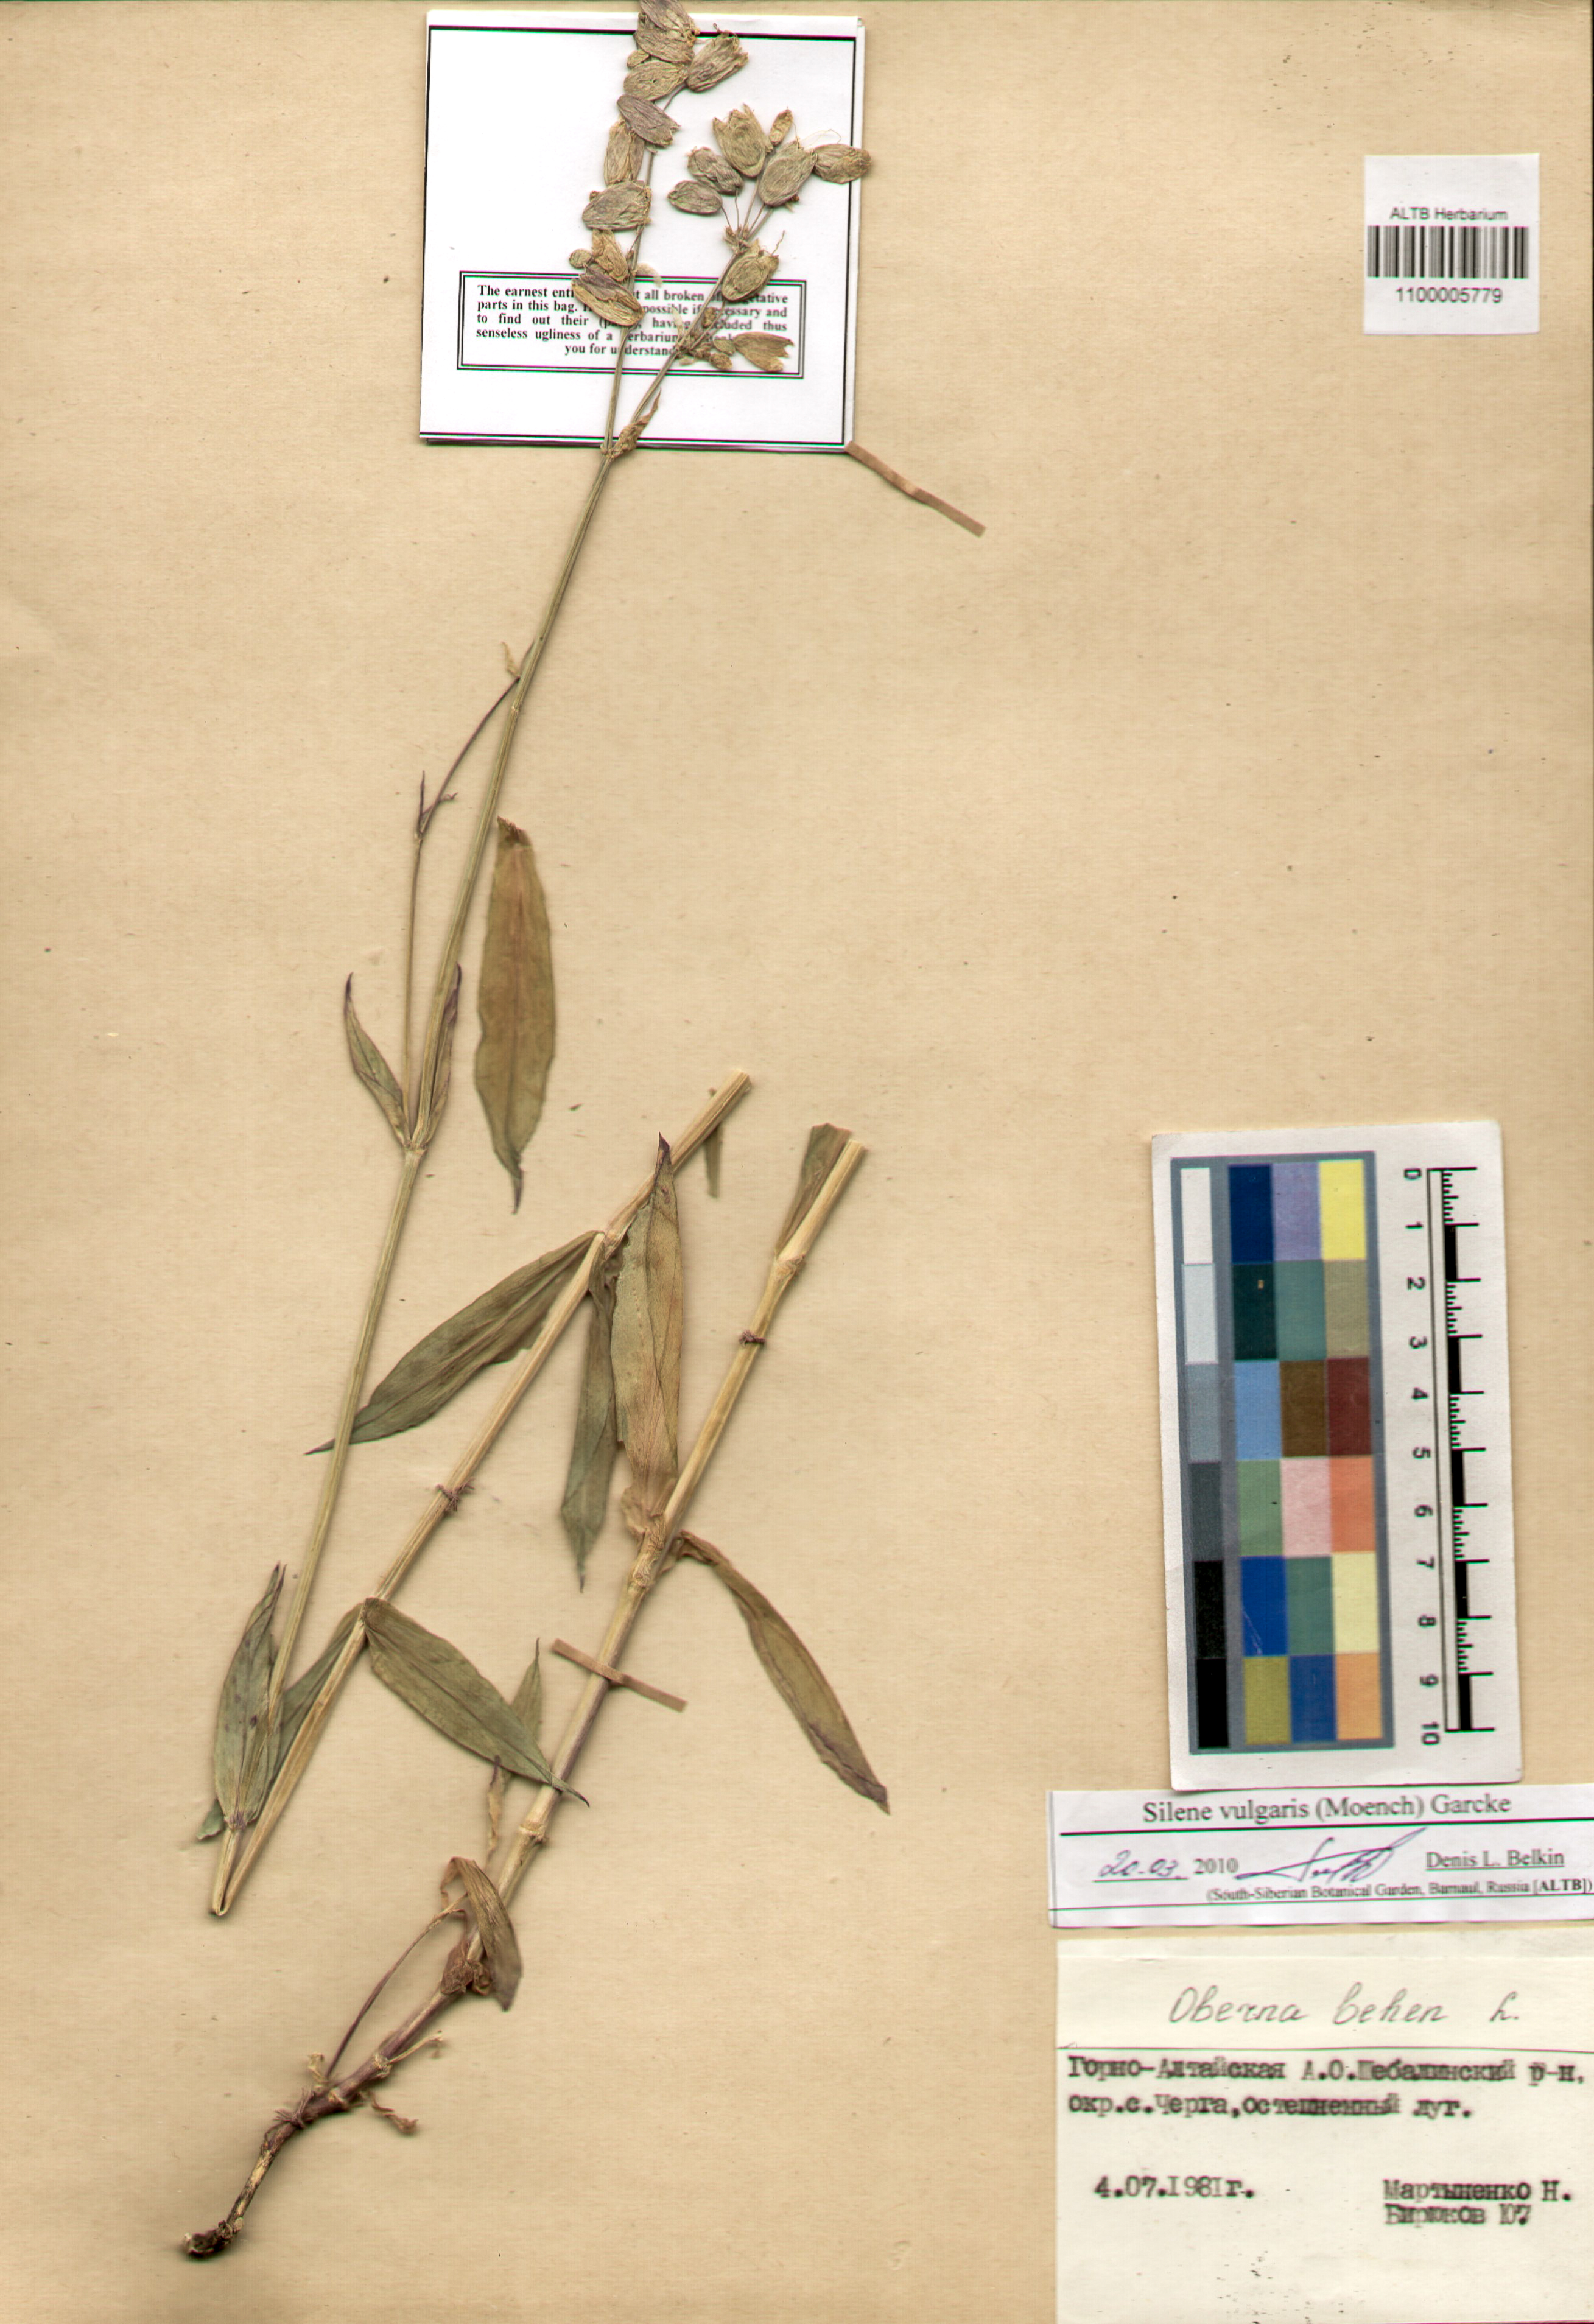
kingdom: Plantae
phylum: Tracheophyta
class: Magnoliopsida
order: Caryophyllales
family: Caryophyllaceae
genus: Silene
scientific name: Silene vulgaris
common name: Bladder campion
